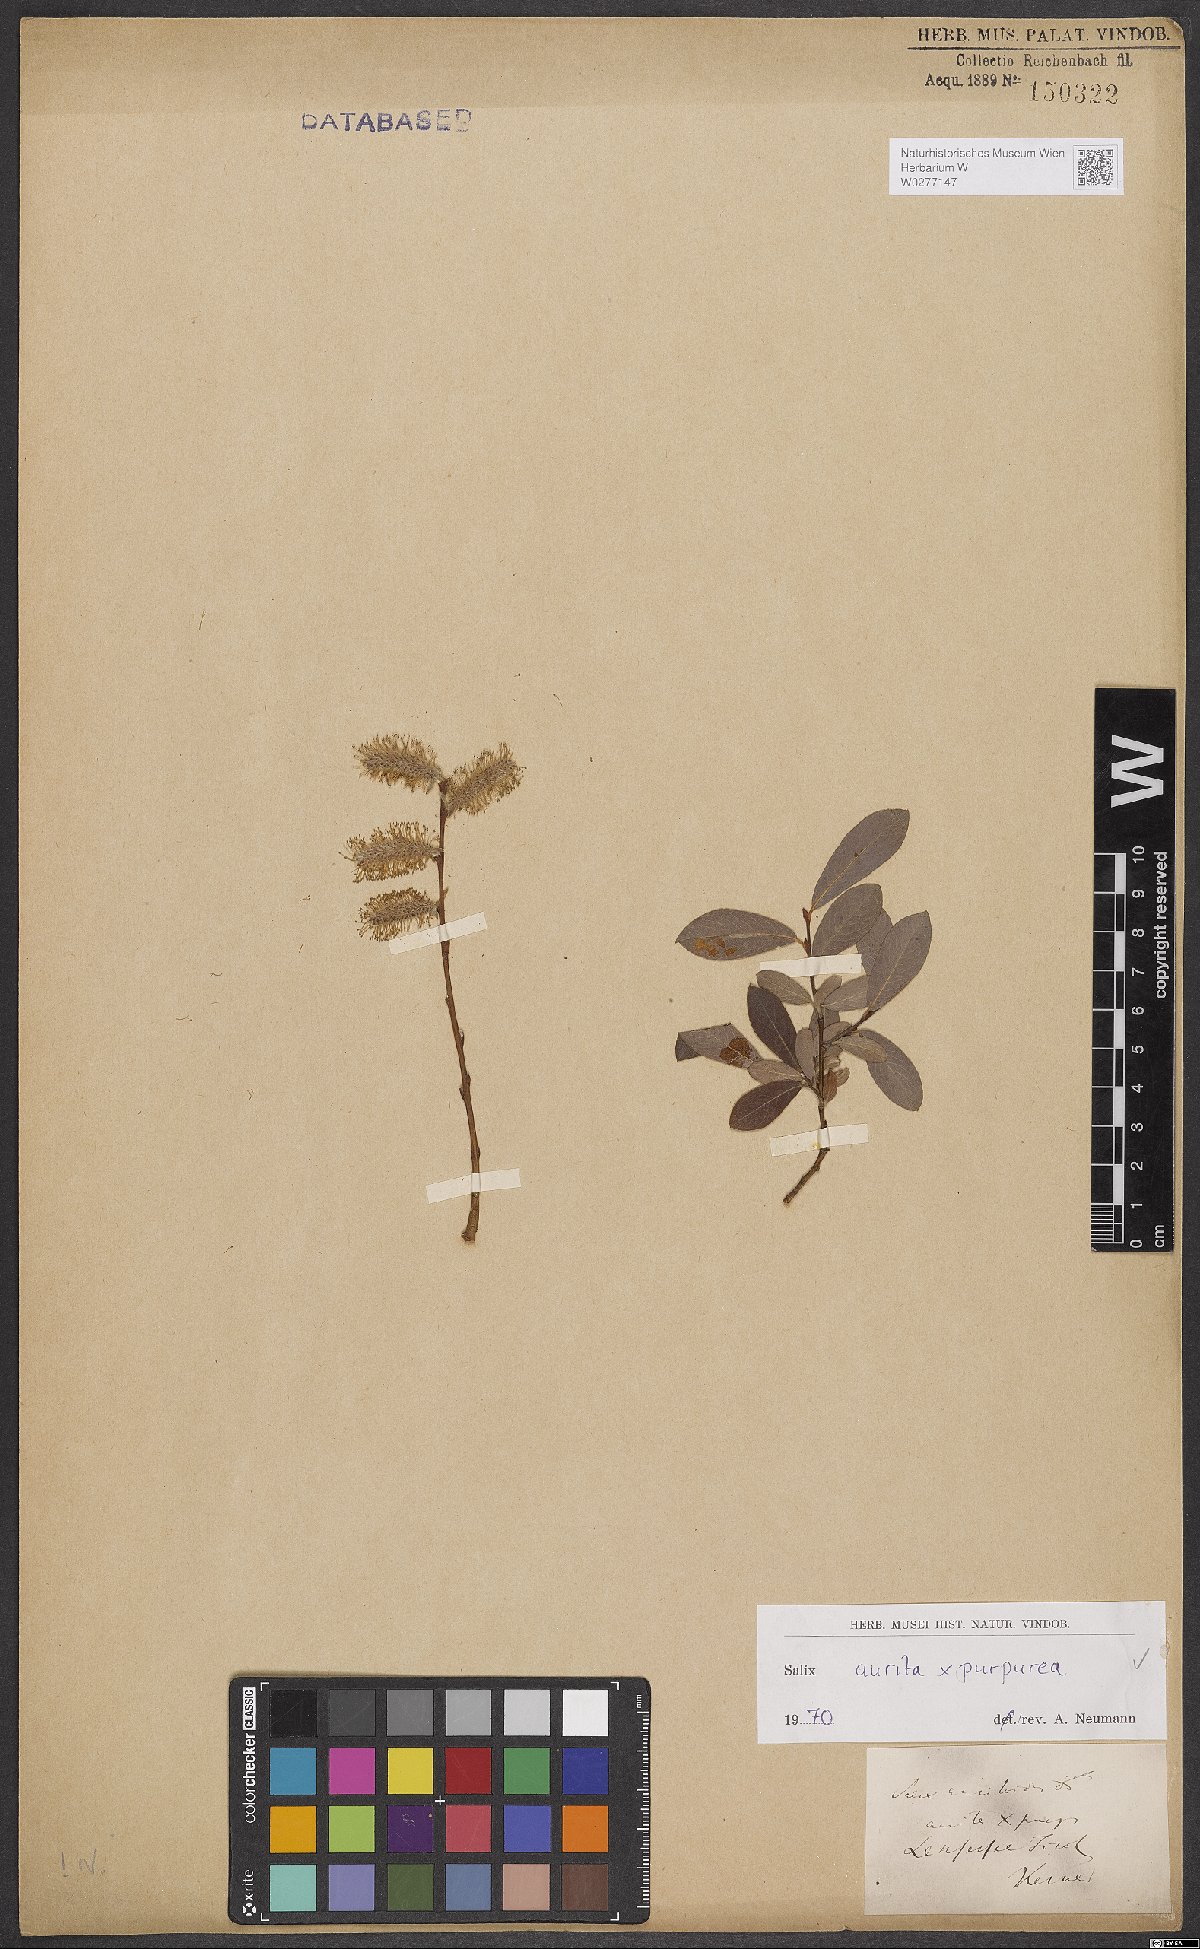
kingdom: Plantae
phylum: Tracheophyta
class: Magnoliopsida
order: Malpighiales
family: Salicaceae
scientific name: Salicaceae
